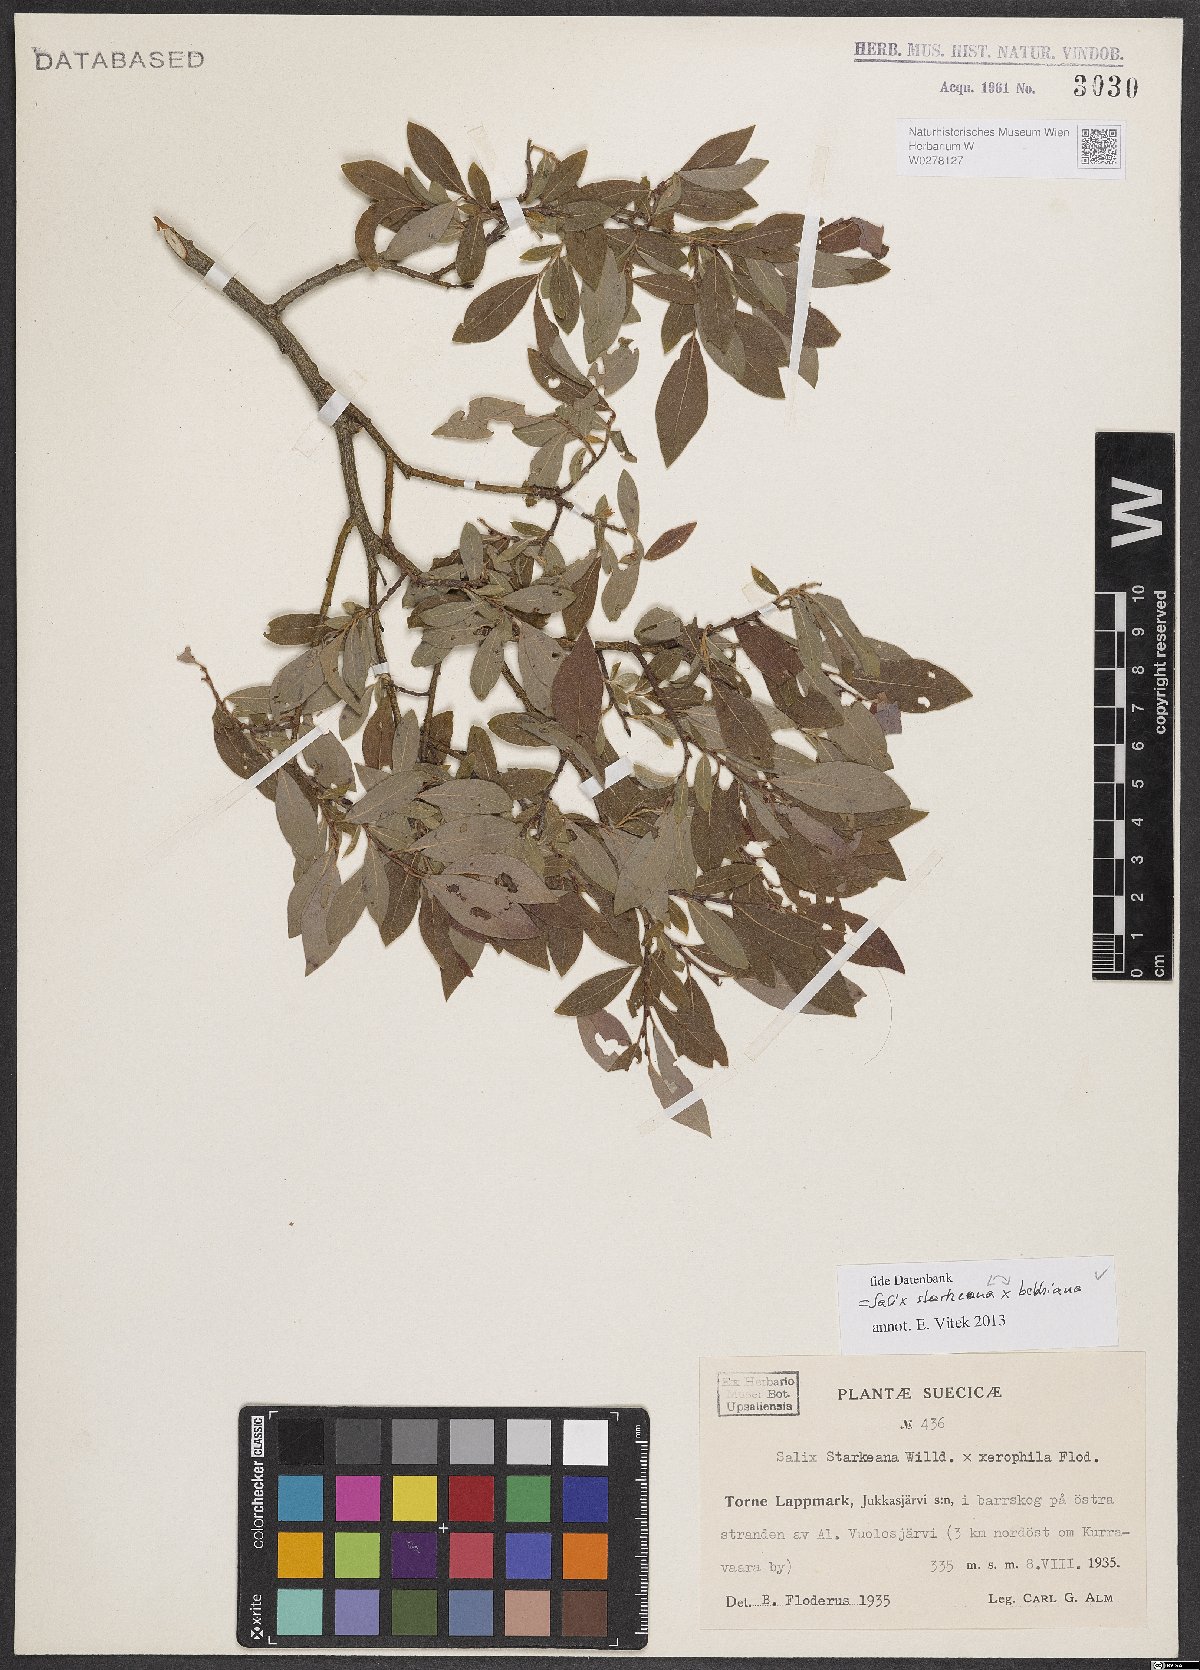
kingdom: Plantae
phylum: Tracheophyta
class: Magnoliopsida
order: Malpighiales
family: Salicaceae
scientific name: Salicaceae
